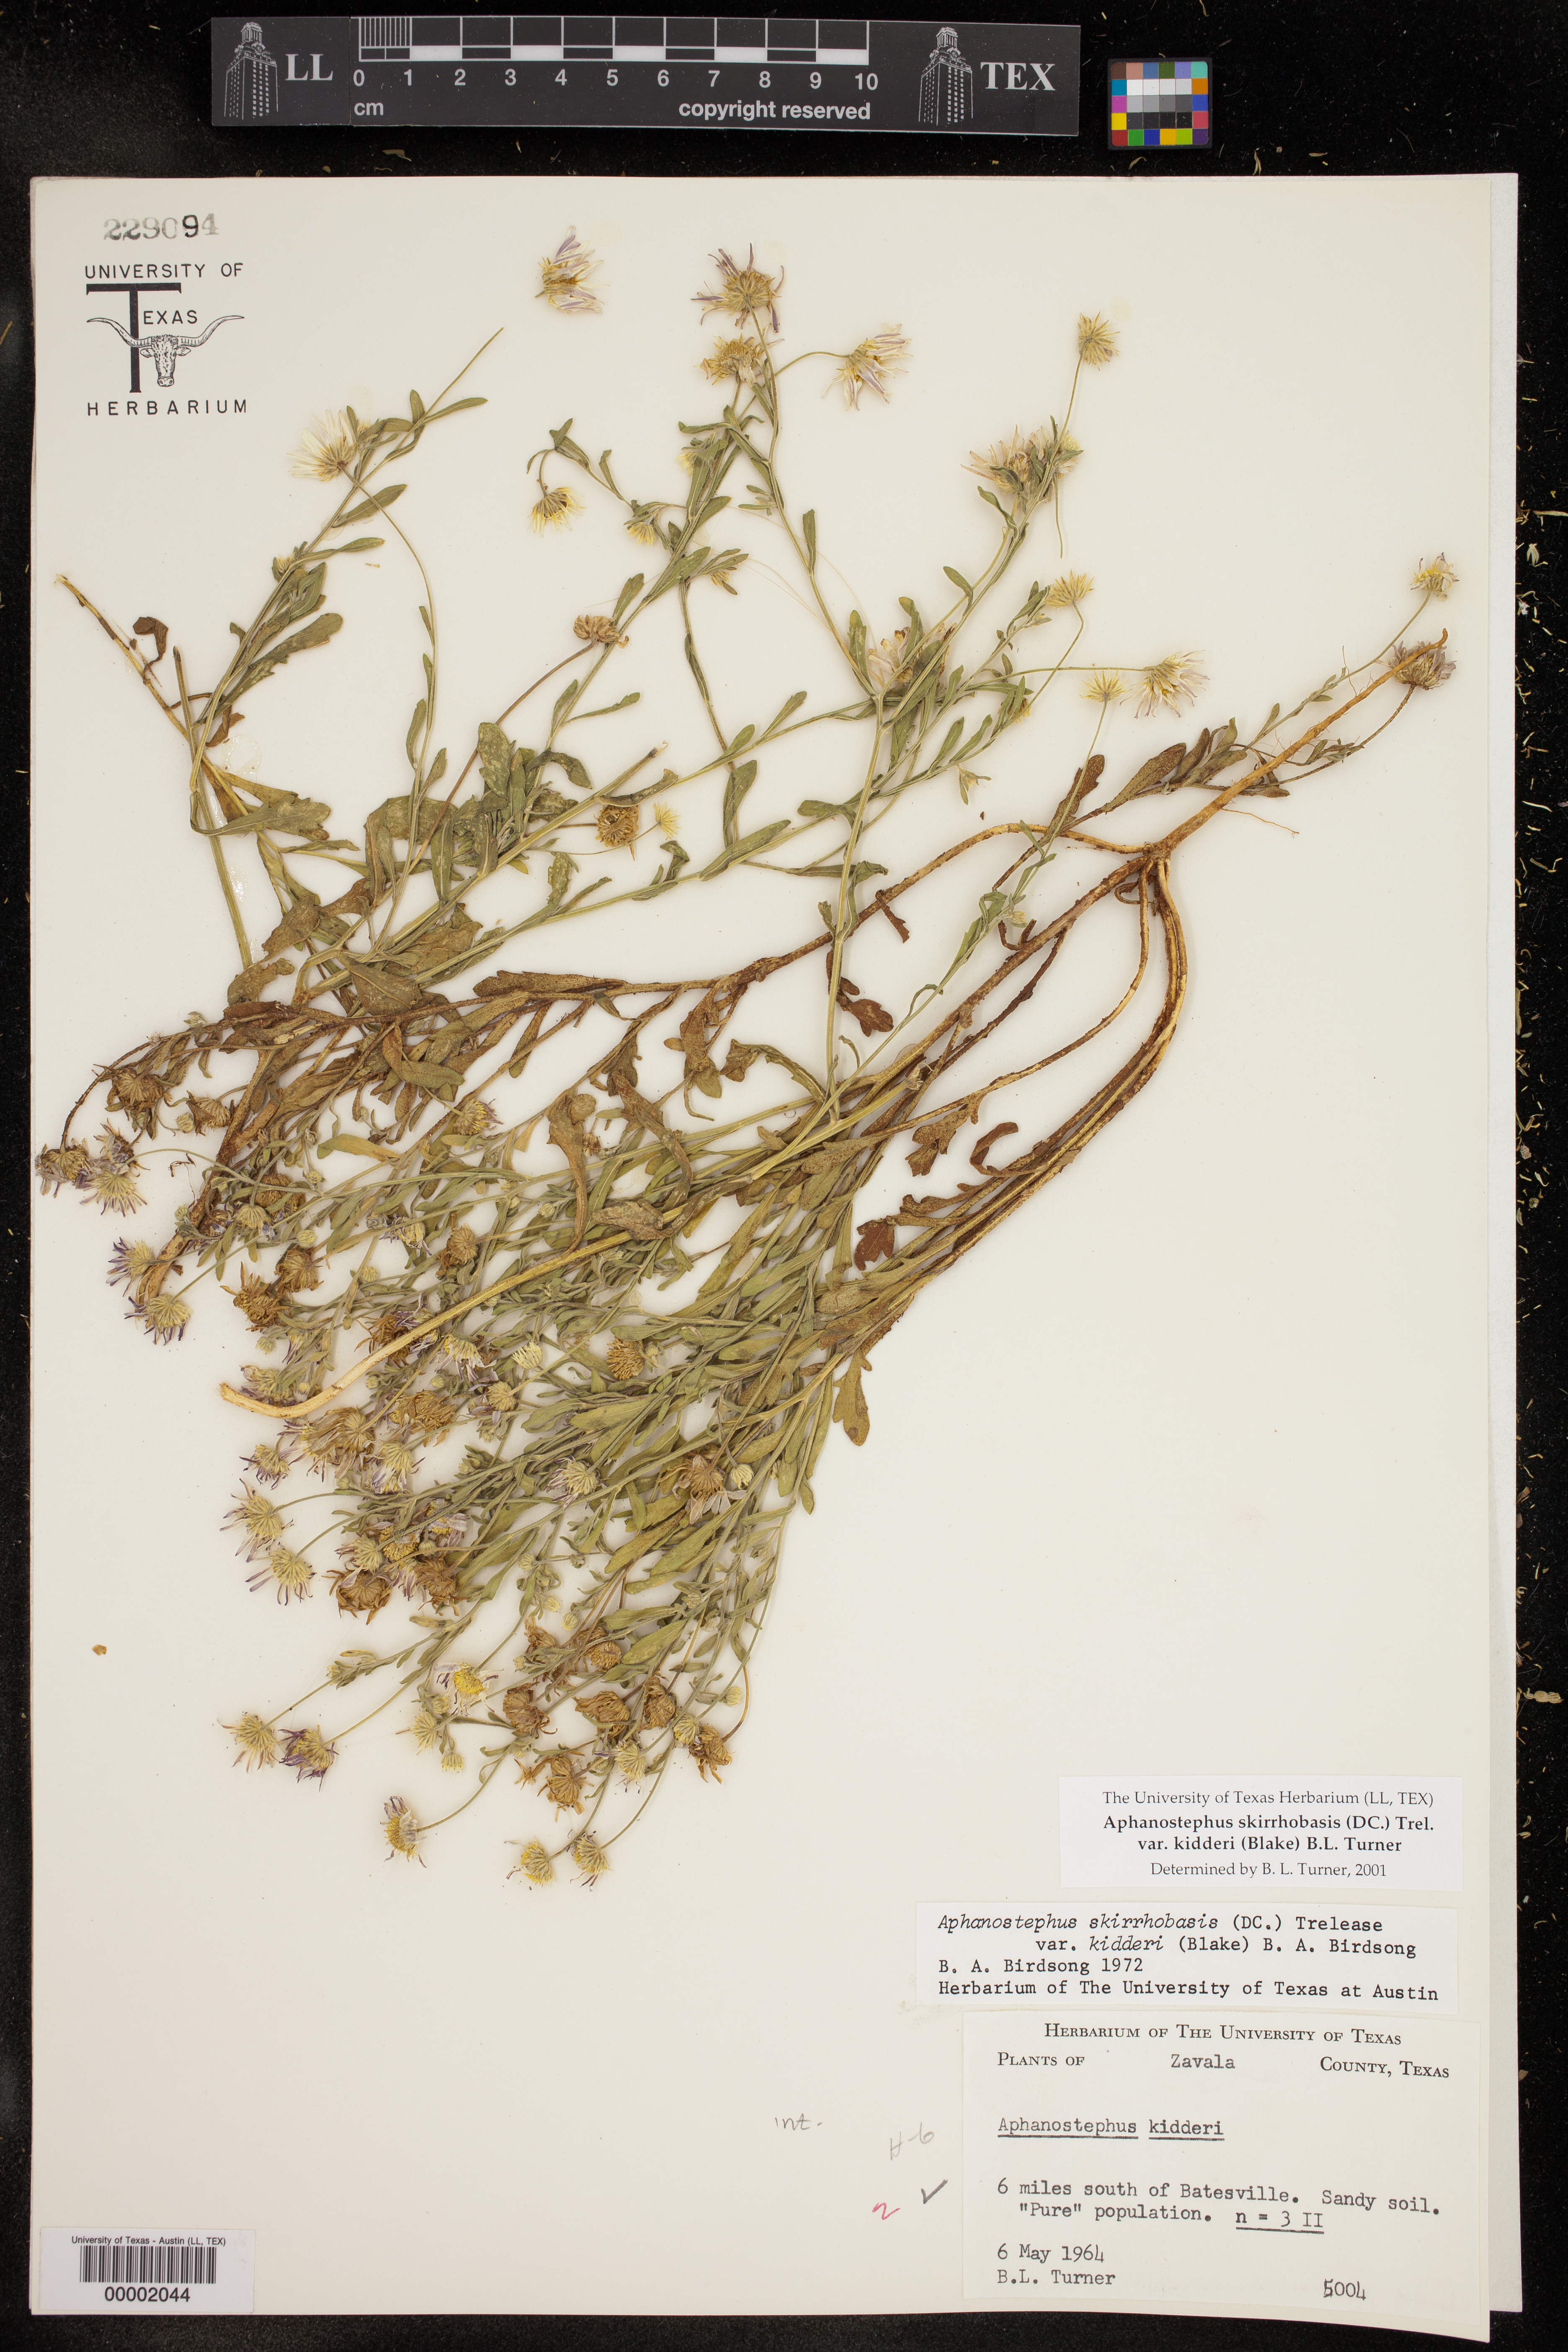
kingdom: Plantae
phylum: Tracheophyta
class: Magnoliopsida
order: Asterales
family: Asteraceae
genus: Aphanostephus
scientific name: Aphanostephus skirrhobasis
